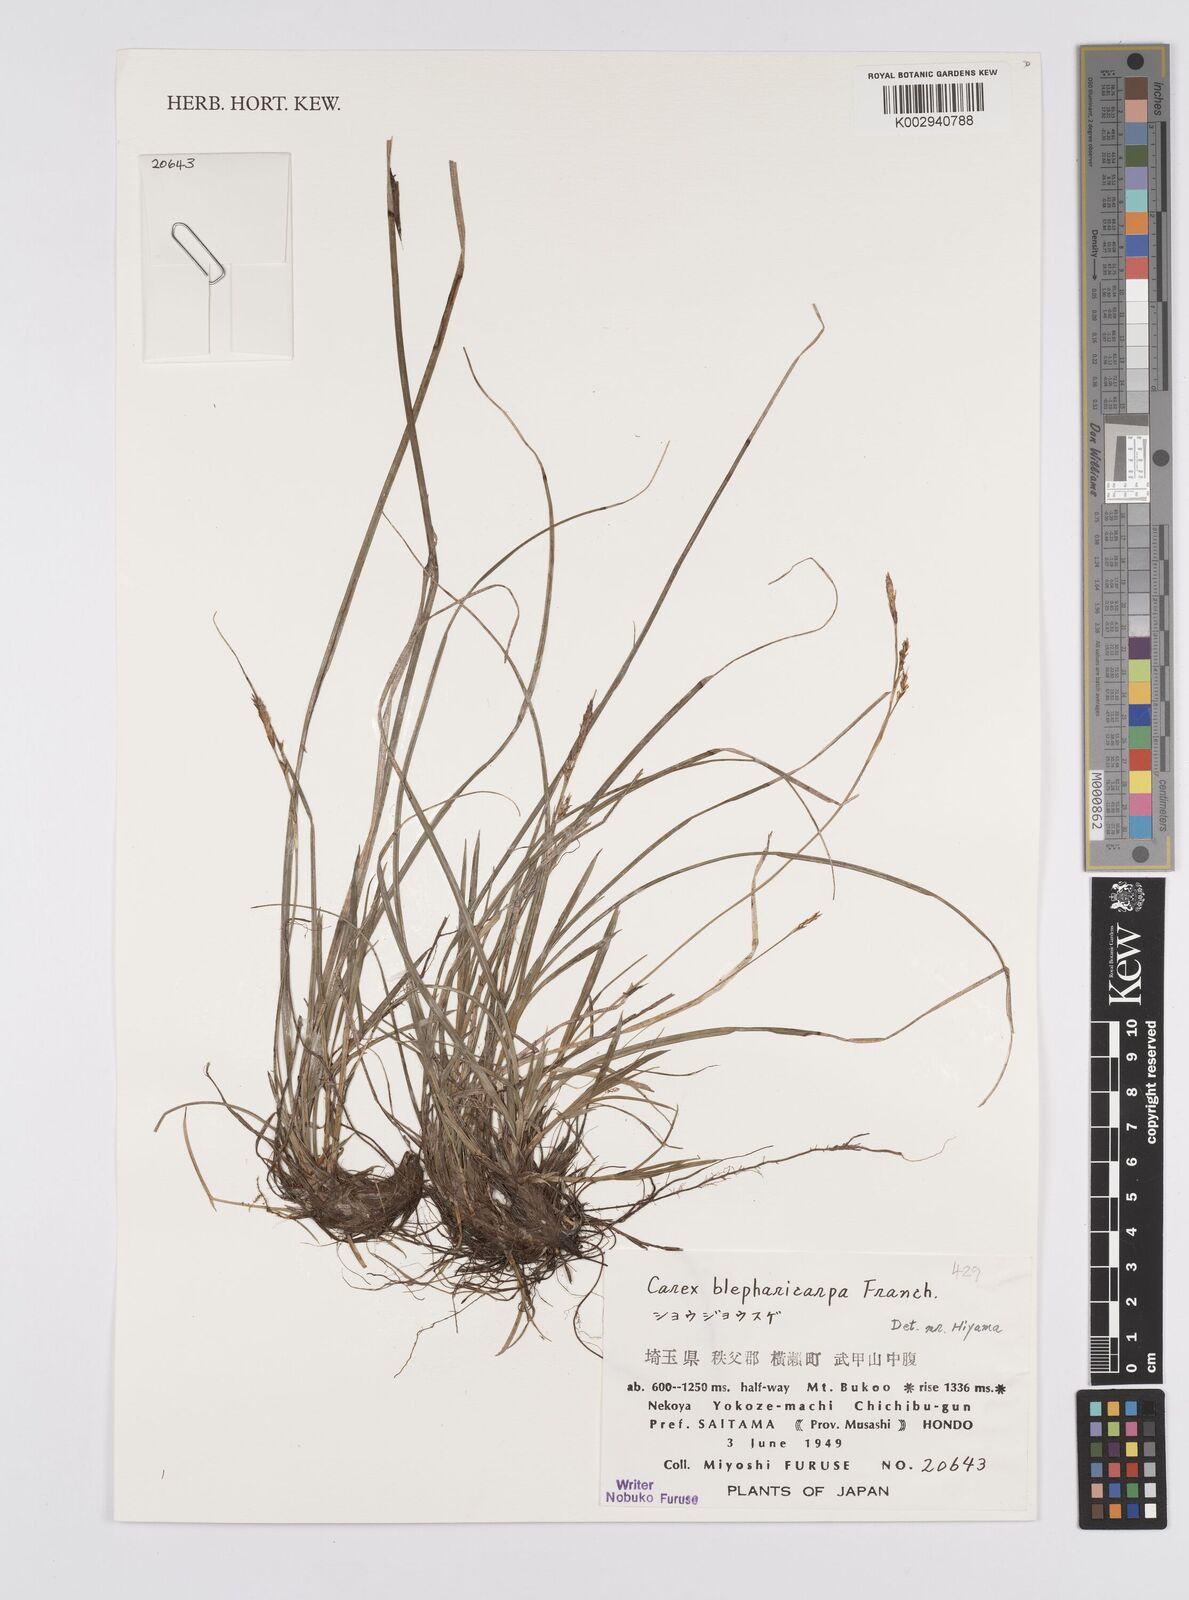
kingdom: Plantae
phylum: Tracheophyta
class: Liliopsida
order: Poales
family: Cyperaceae
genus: Carex
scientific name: Carex blepharicarpa
